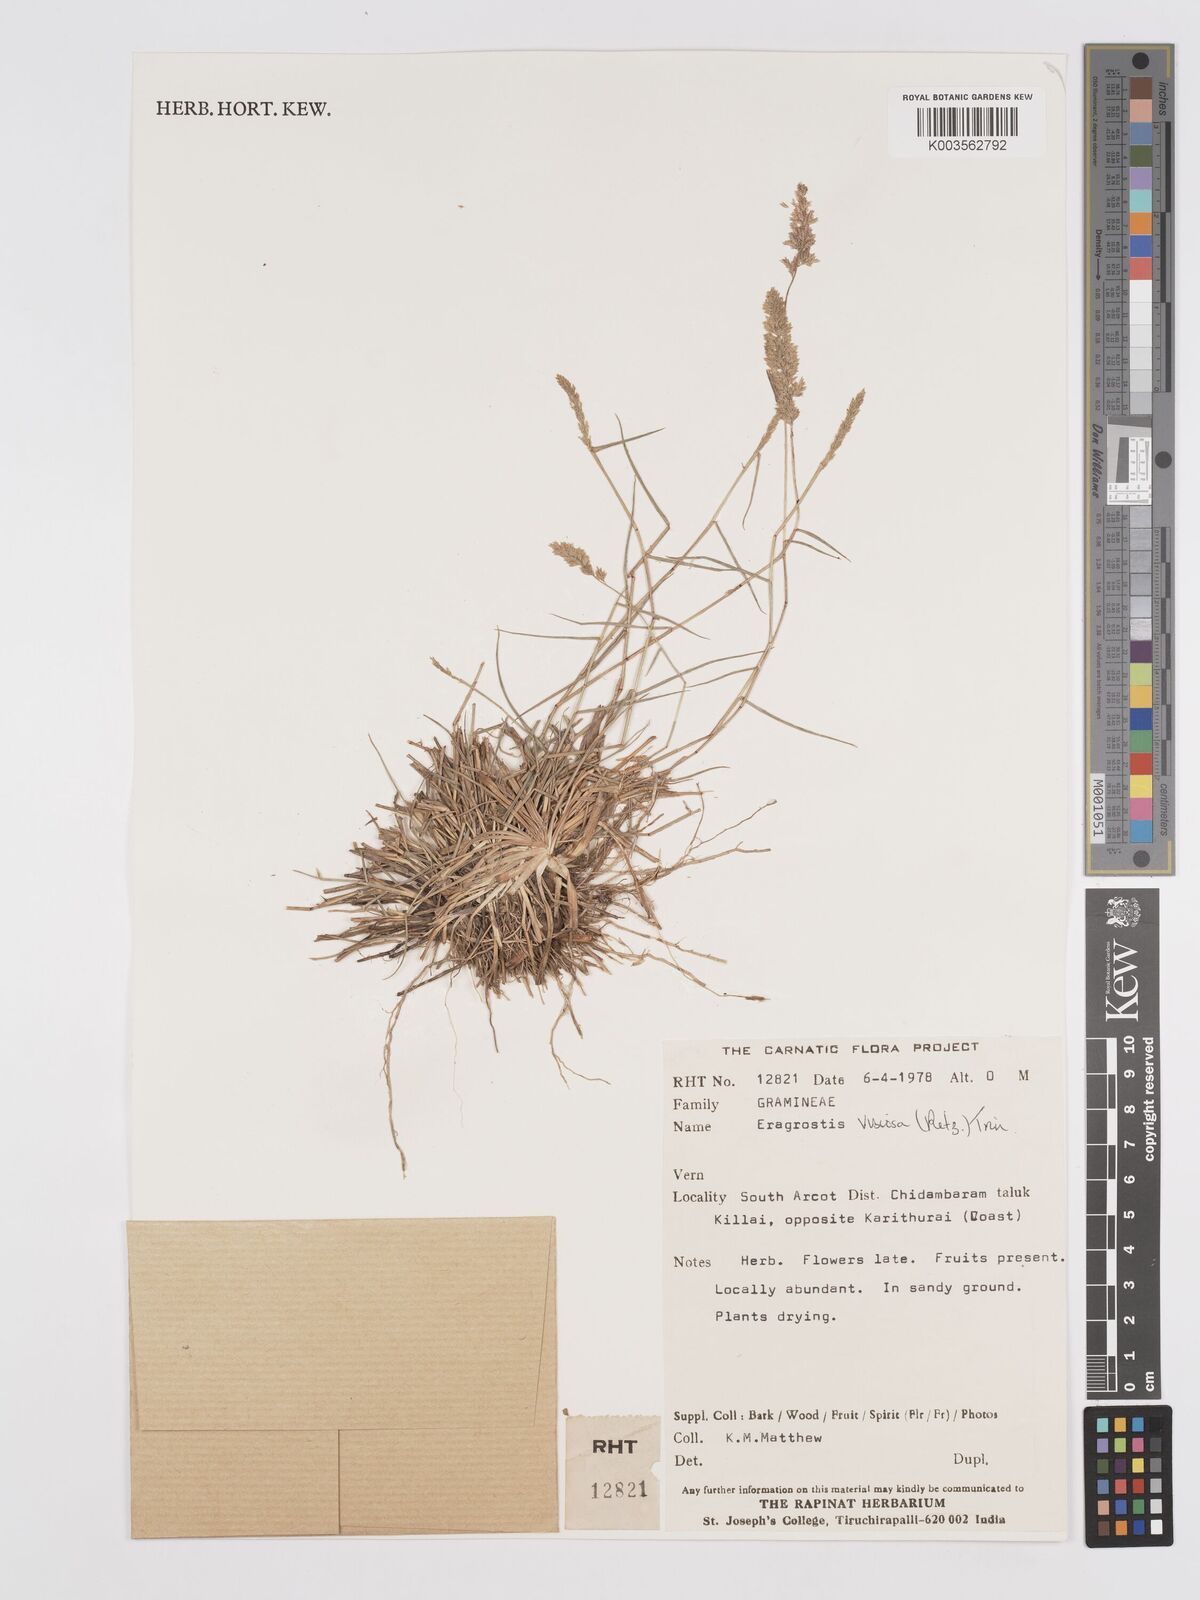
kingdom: Plantae
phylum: Tracheophyta
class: Liliopsida
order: Poales
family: Poaceae
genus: Eragrostis
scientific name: Eragrostis viscosa
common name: Sticky love grass
